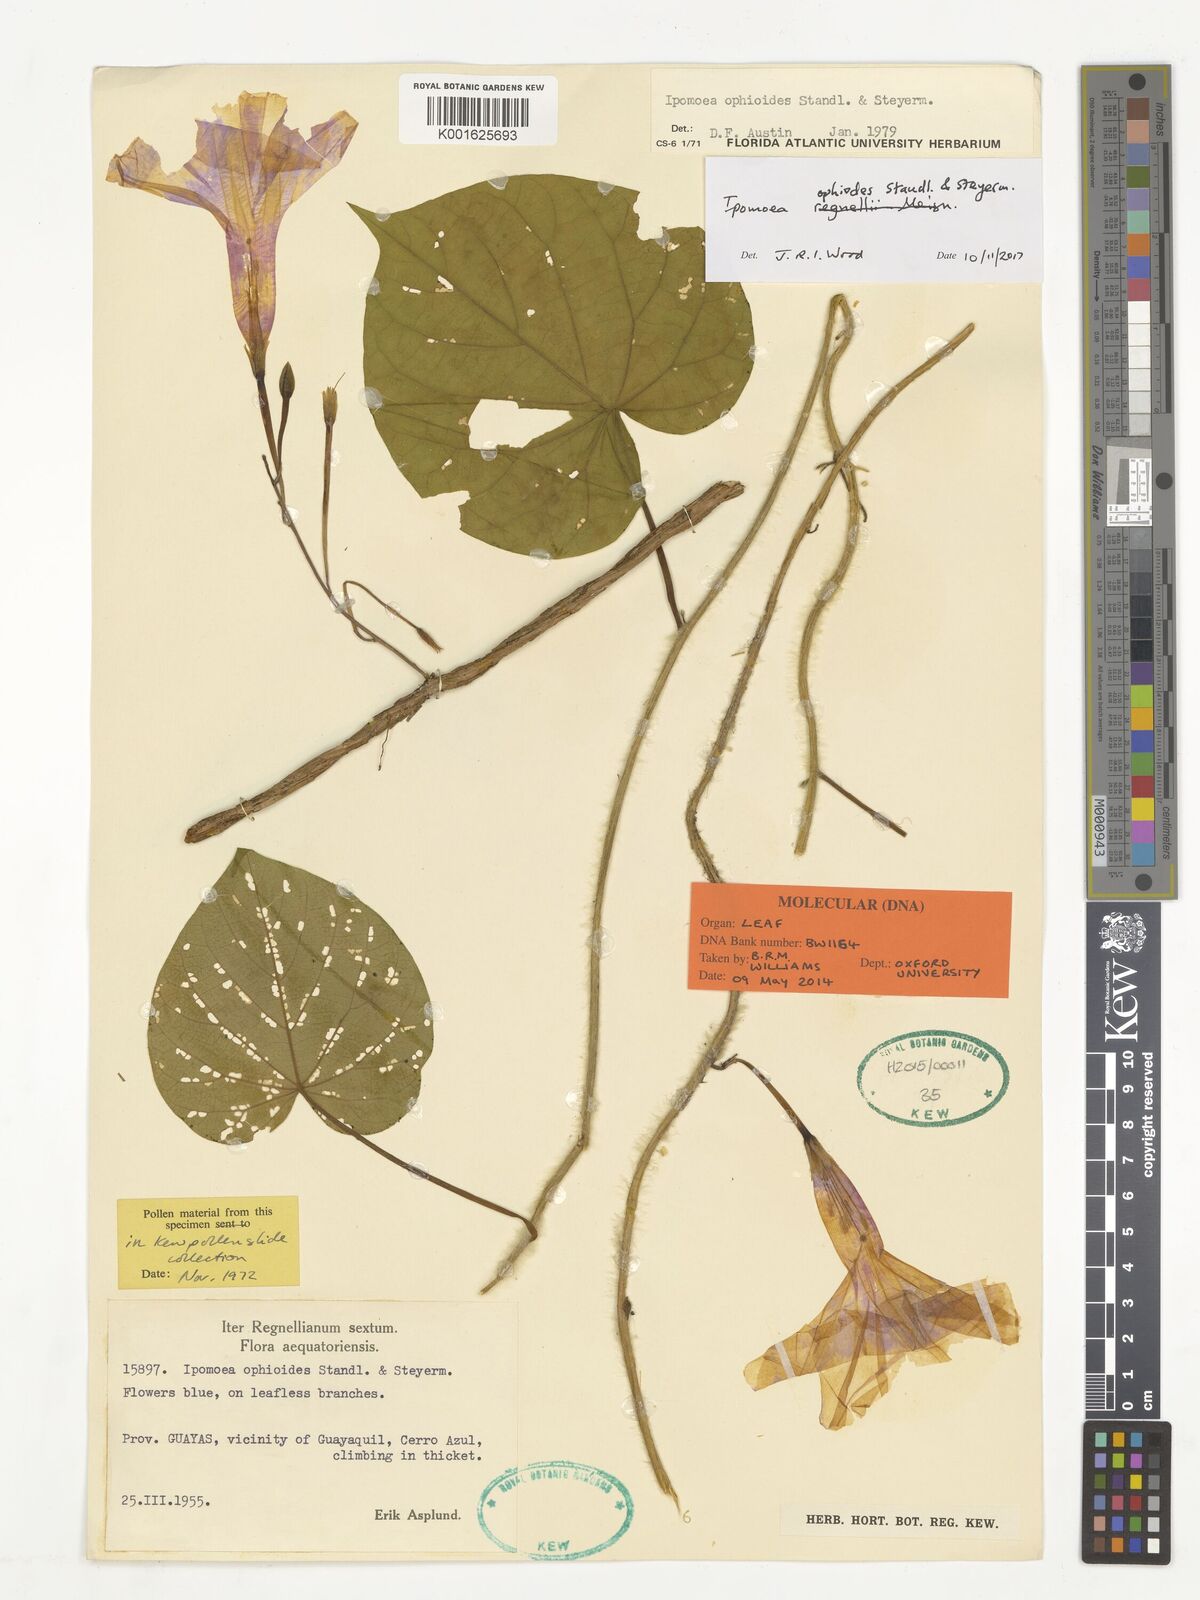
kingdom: Plantae
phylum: Tracheophyta
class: Magnoliopsida
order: Solanales
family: Convolvulaceae
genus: Ipomoea
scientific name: Ipomoea regnellii
